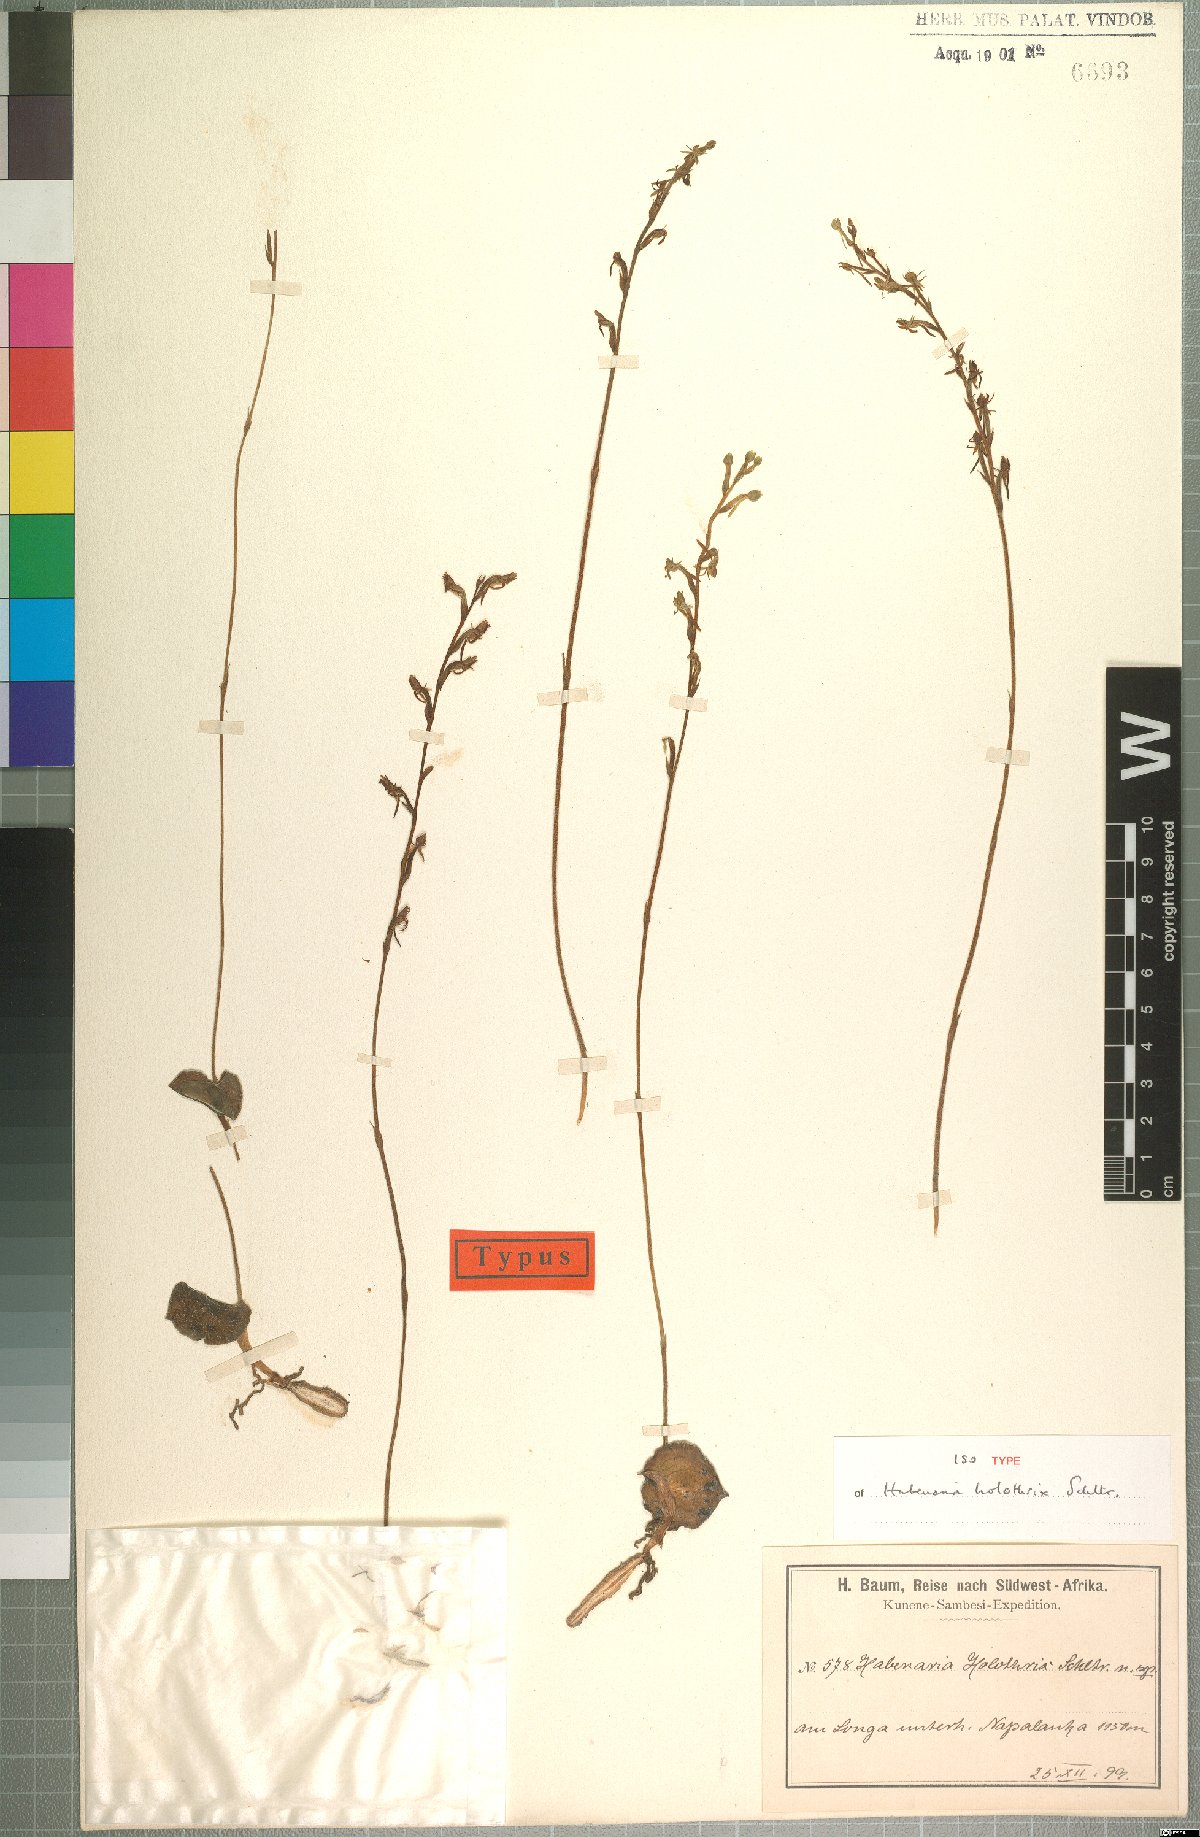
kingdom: Plantae
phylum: Tracheophyta
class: Liliopsida
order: Asparagales
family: Orchidaceae
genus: Habenaria
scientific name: Habenaria holothrix
